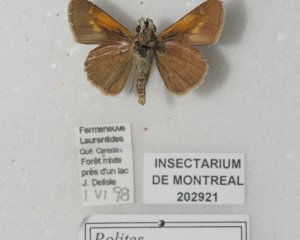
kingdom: Animalia
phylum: Arthropoda
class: Insecta
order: Lepidoptera
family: Hesperiidae
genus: Polites
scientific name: Polites themistocles
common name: Tawny-edged Skipper
